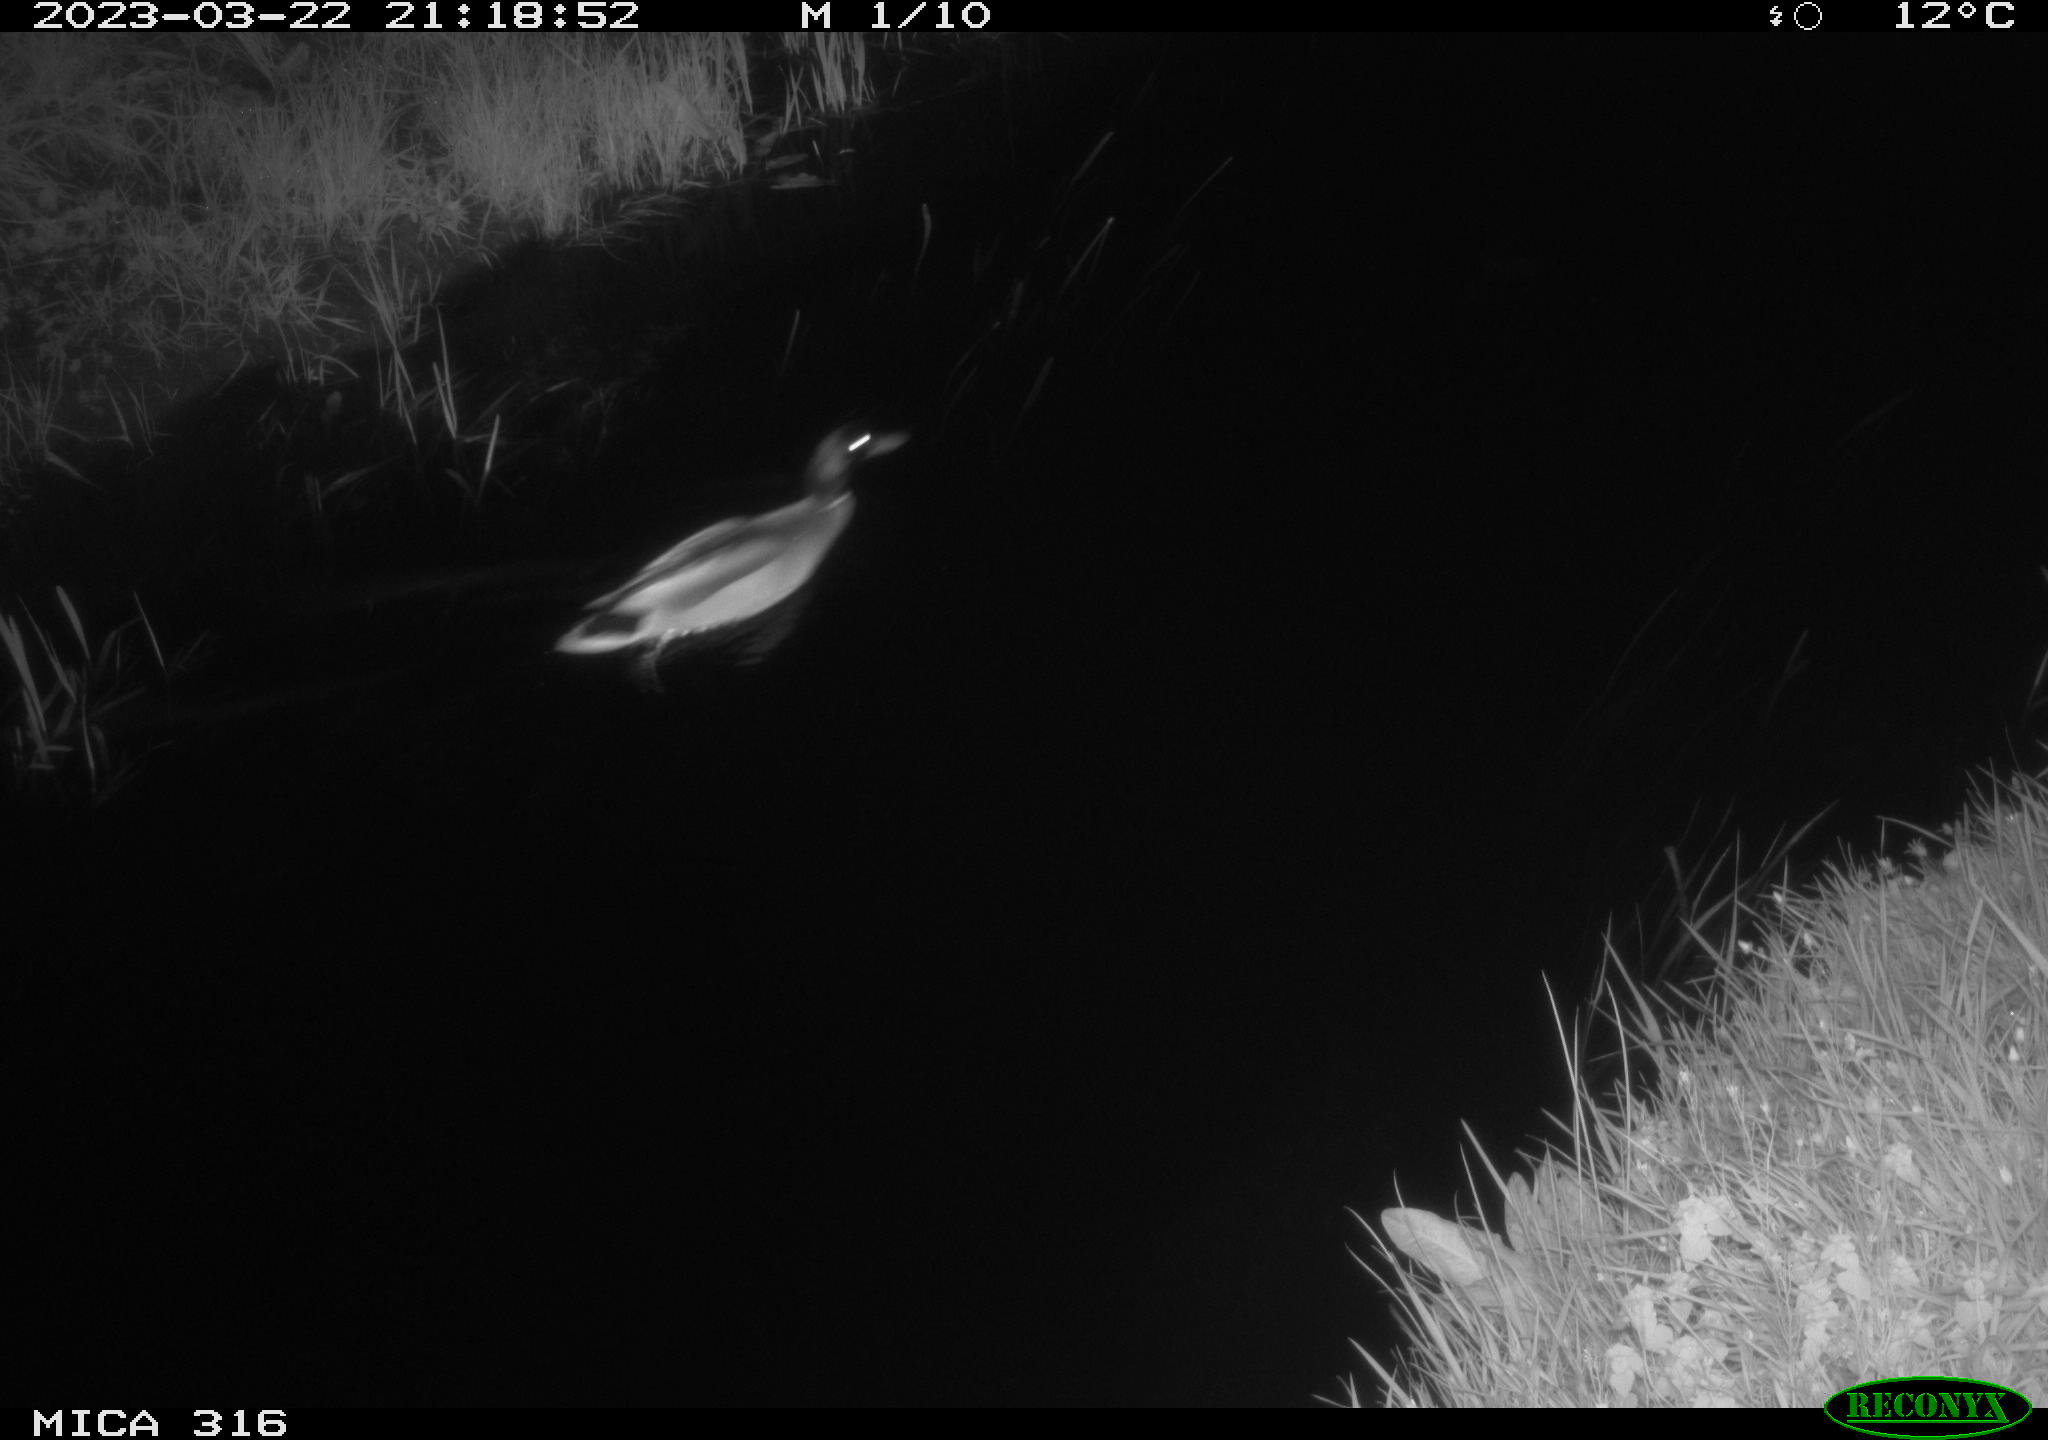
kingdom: Animalia
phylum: Chordata
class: Aves
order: Anseriformes
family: Anatidae
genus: Anas
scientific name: Anas
